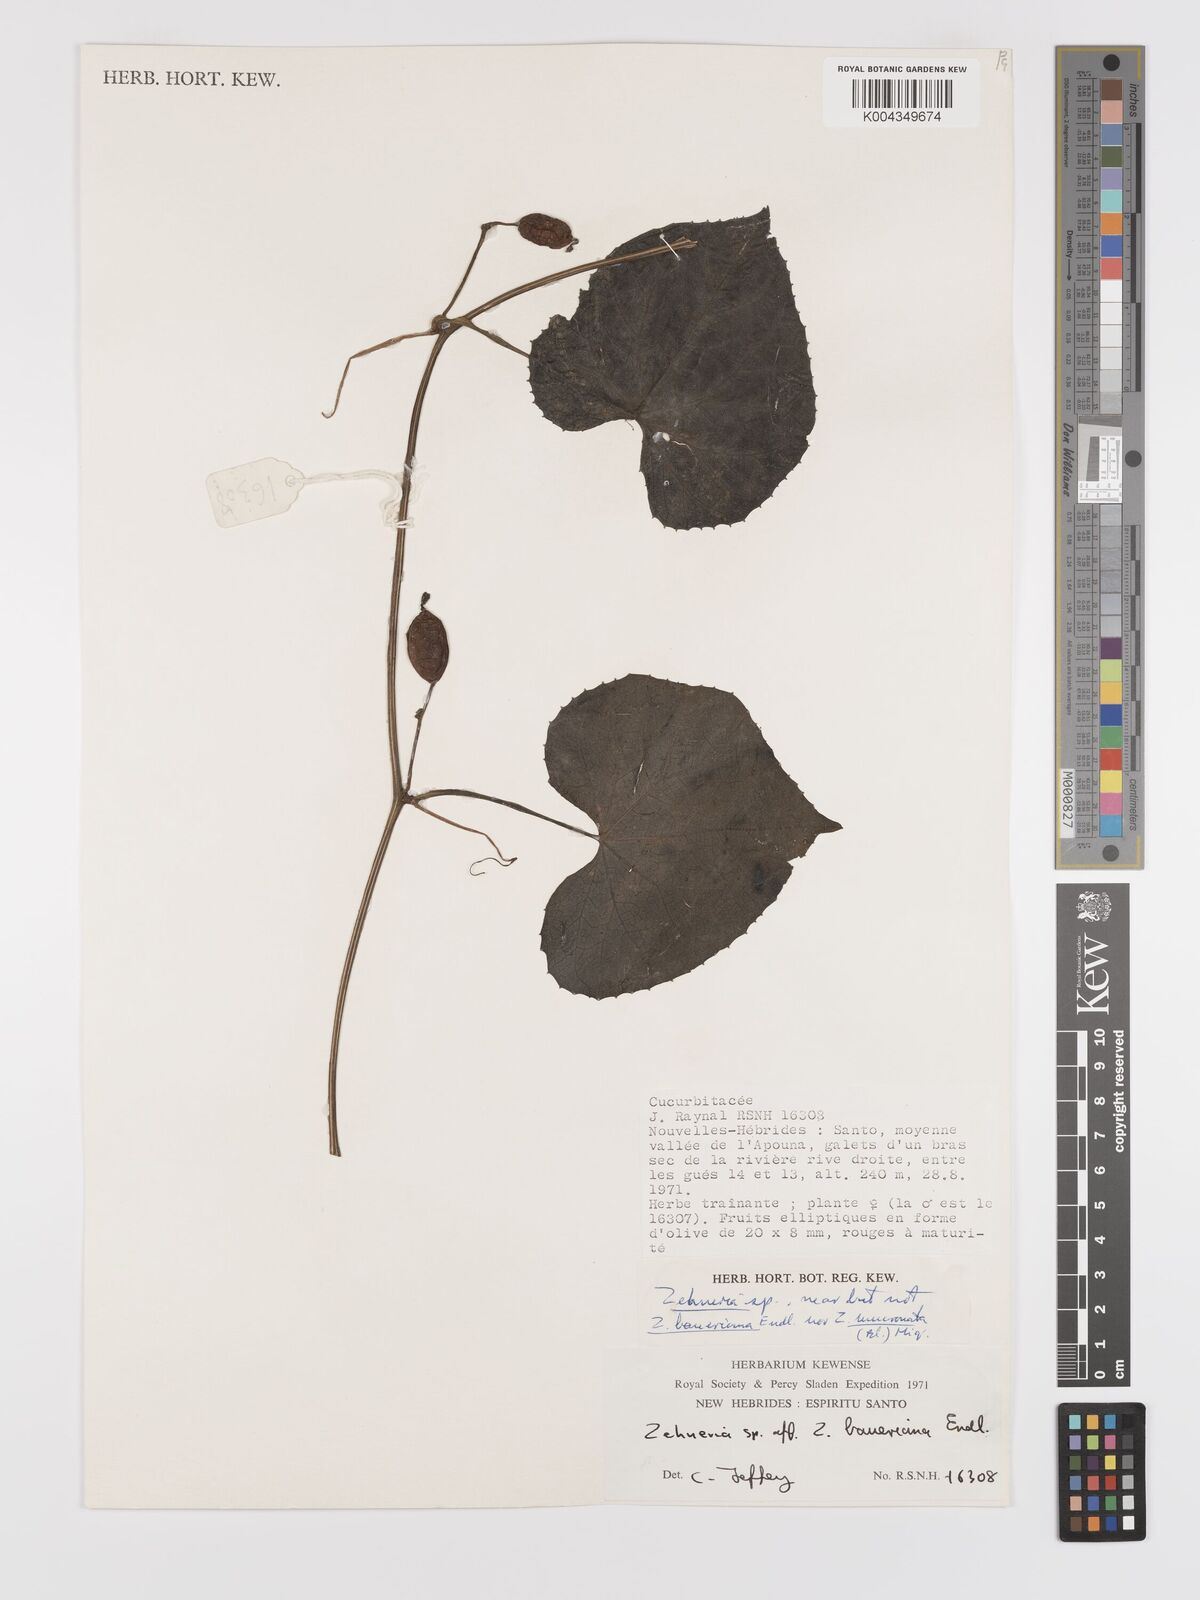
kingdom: Plantae
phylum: Tracheophyta
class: Magnoliopsida
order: Cucurbitales
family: Cucurbitaceae
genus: Zehneria
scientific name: Zehneria mucronata
